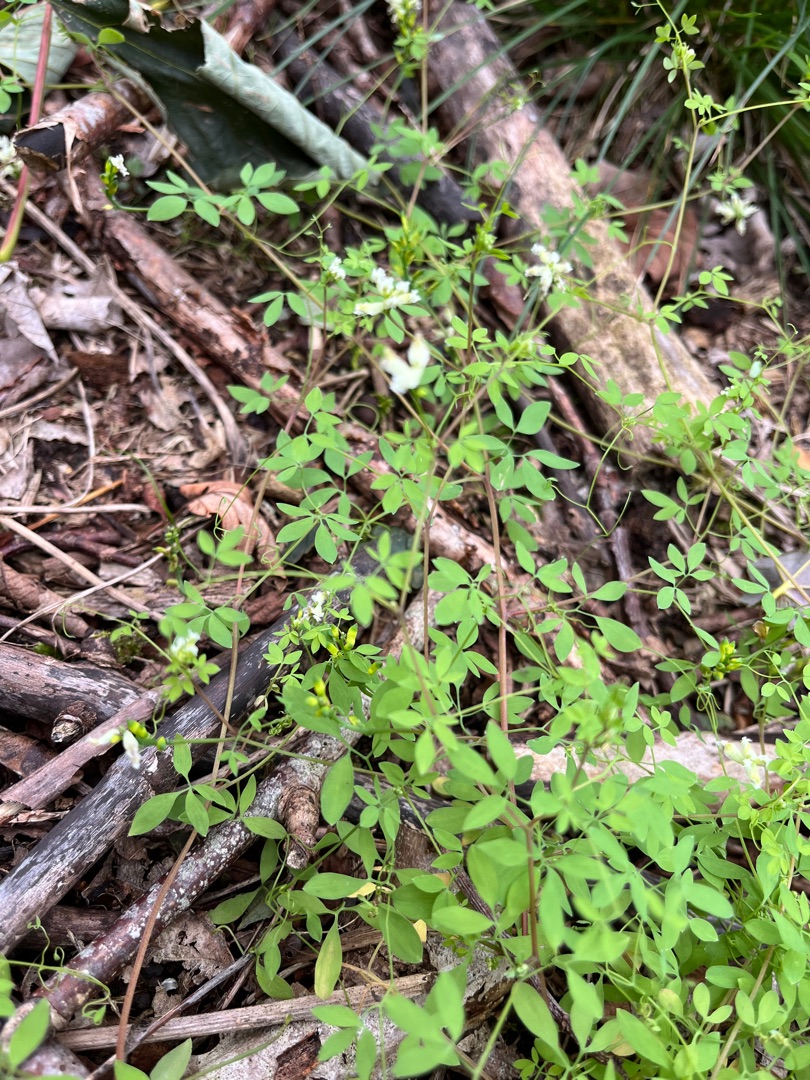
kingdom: Plantae
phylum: Tracheophyta
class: Magnoliopsida
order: Ranunculales
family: Papaveraceae
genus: Ceratocapnos
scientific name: Ceratocapnos claviculata
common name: Klatrende lærkespore
